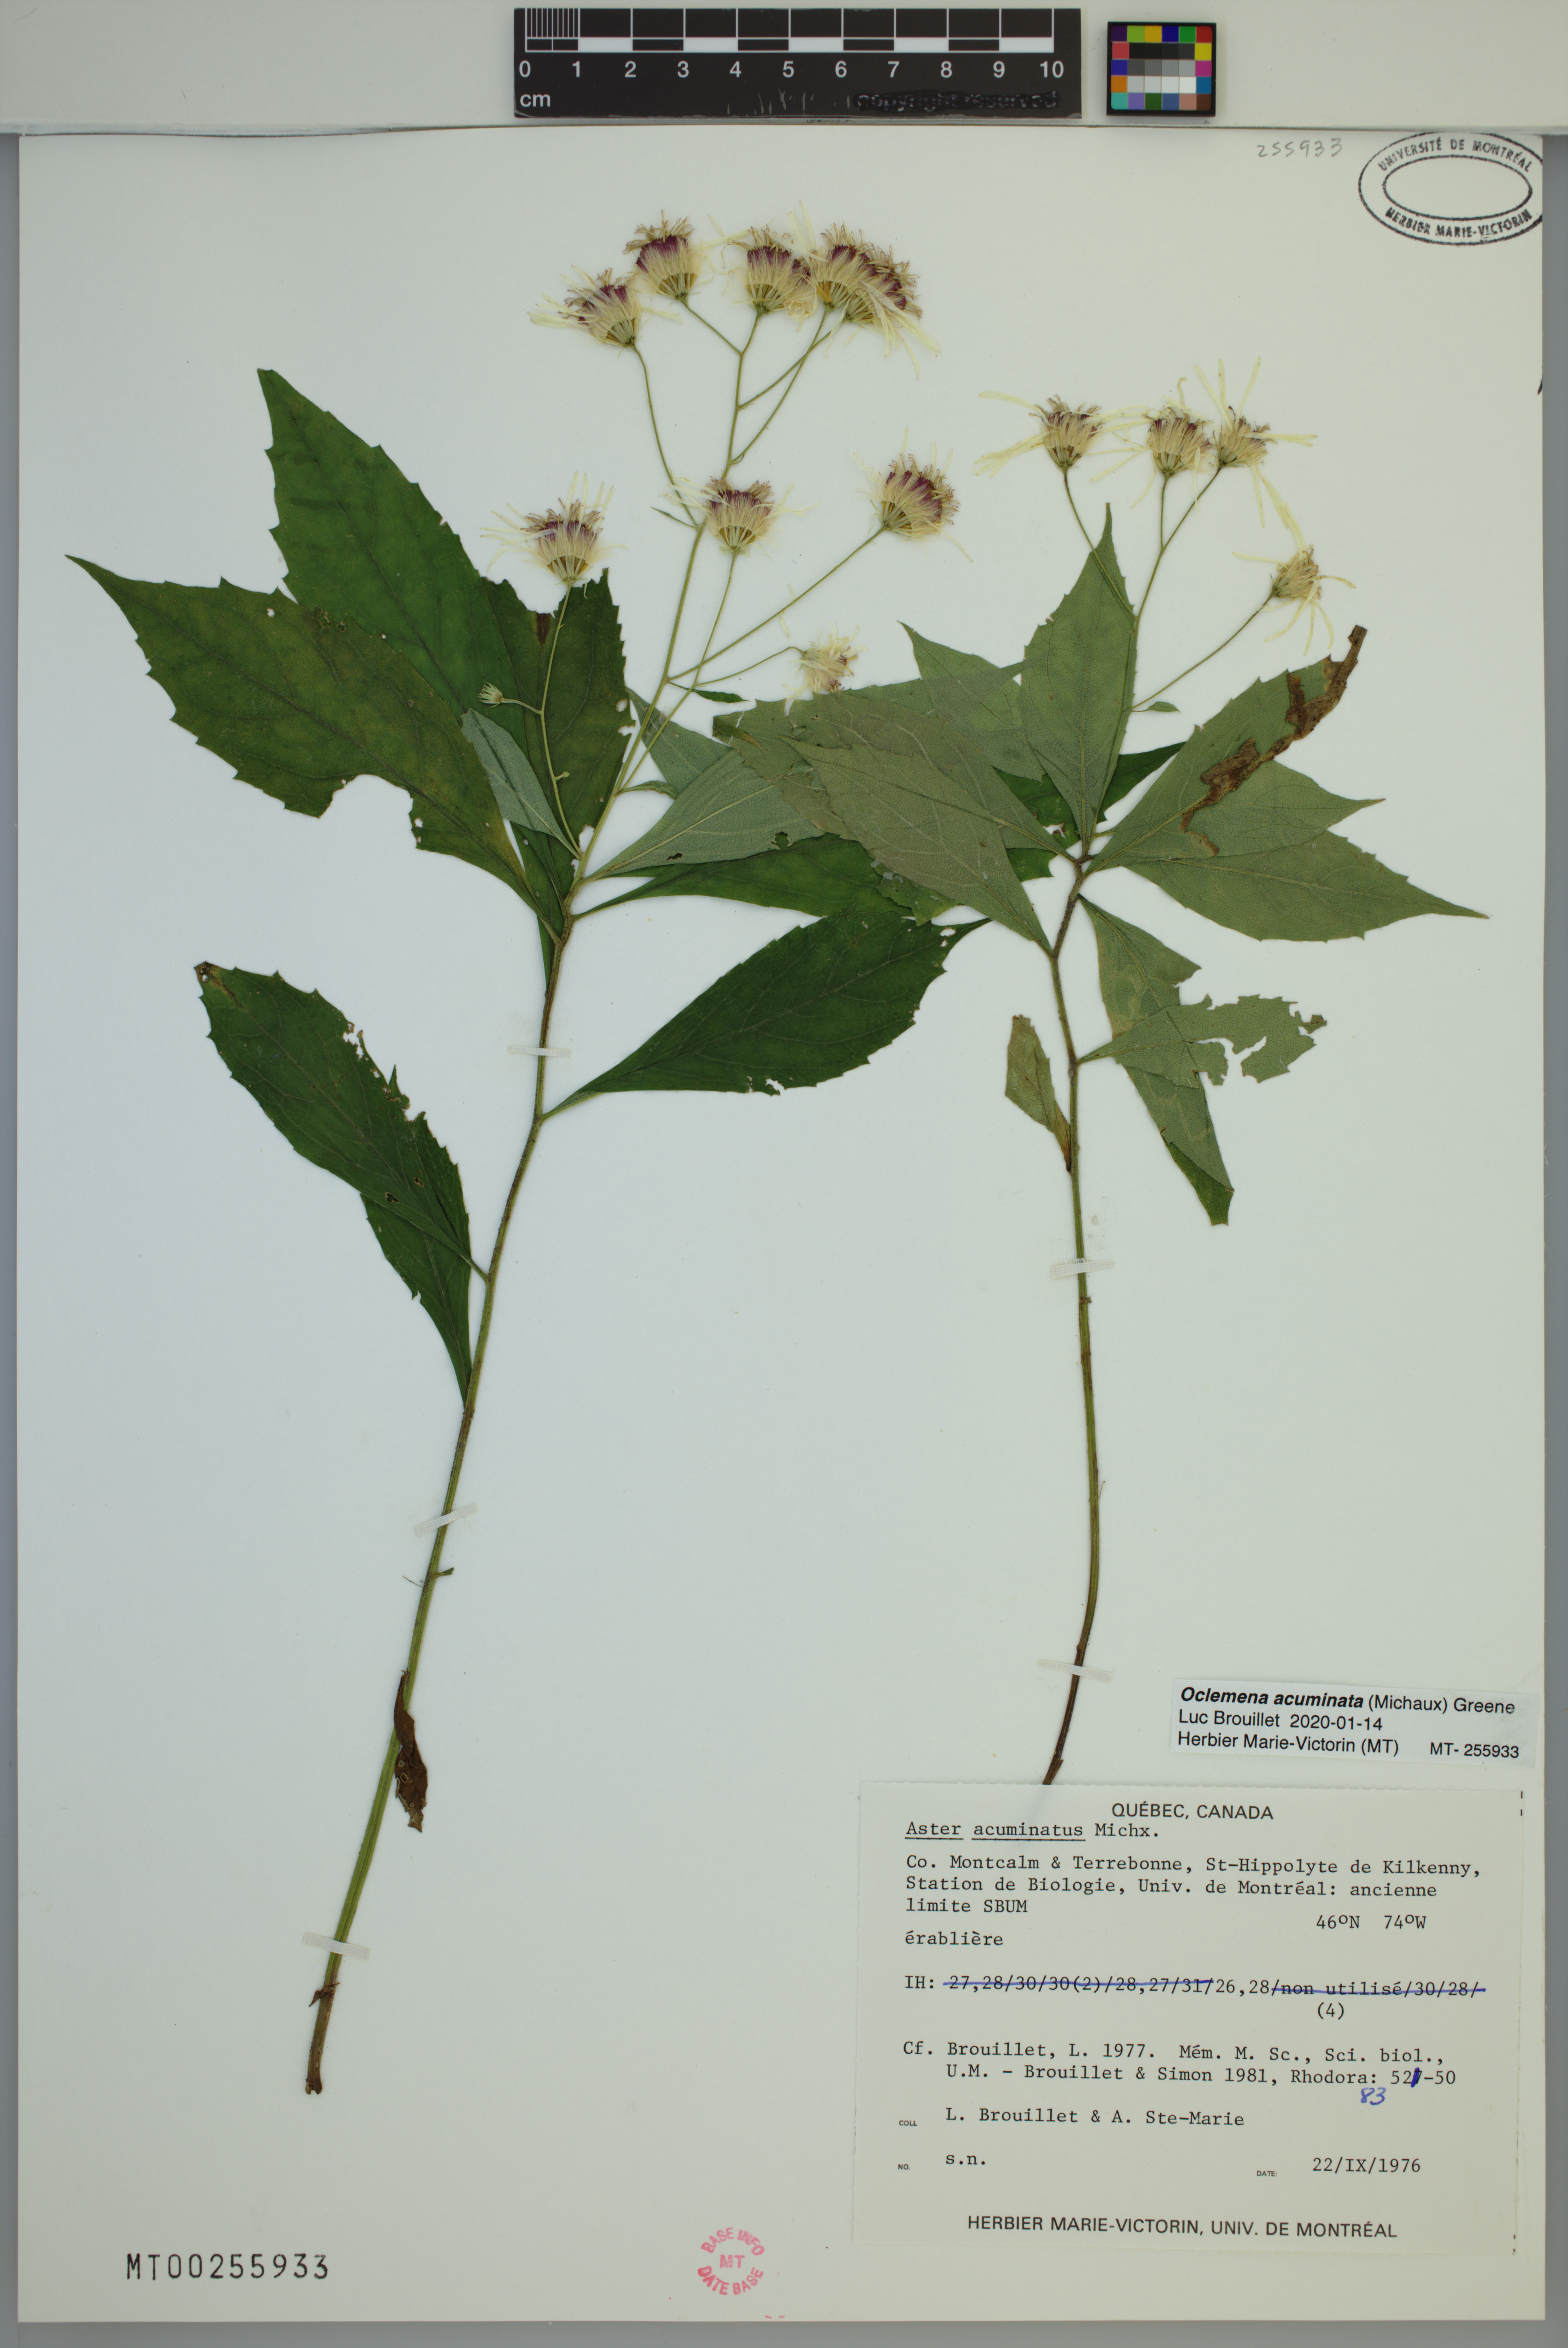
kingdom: Plantae
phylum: Tracheophyta
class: Magnoliopsida
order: Asterales
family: Asteraceae
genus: Oclemena
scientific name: Oclemena acuminata
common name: Mountain aster
